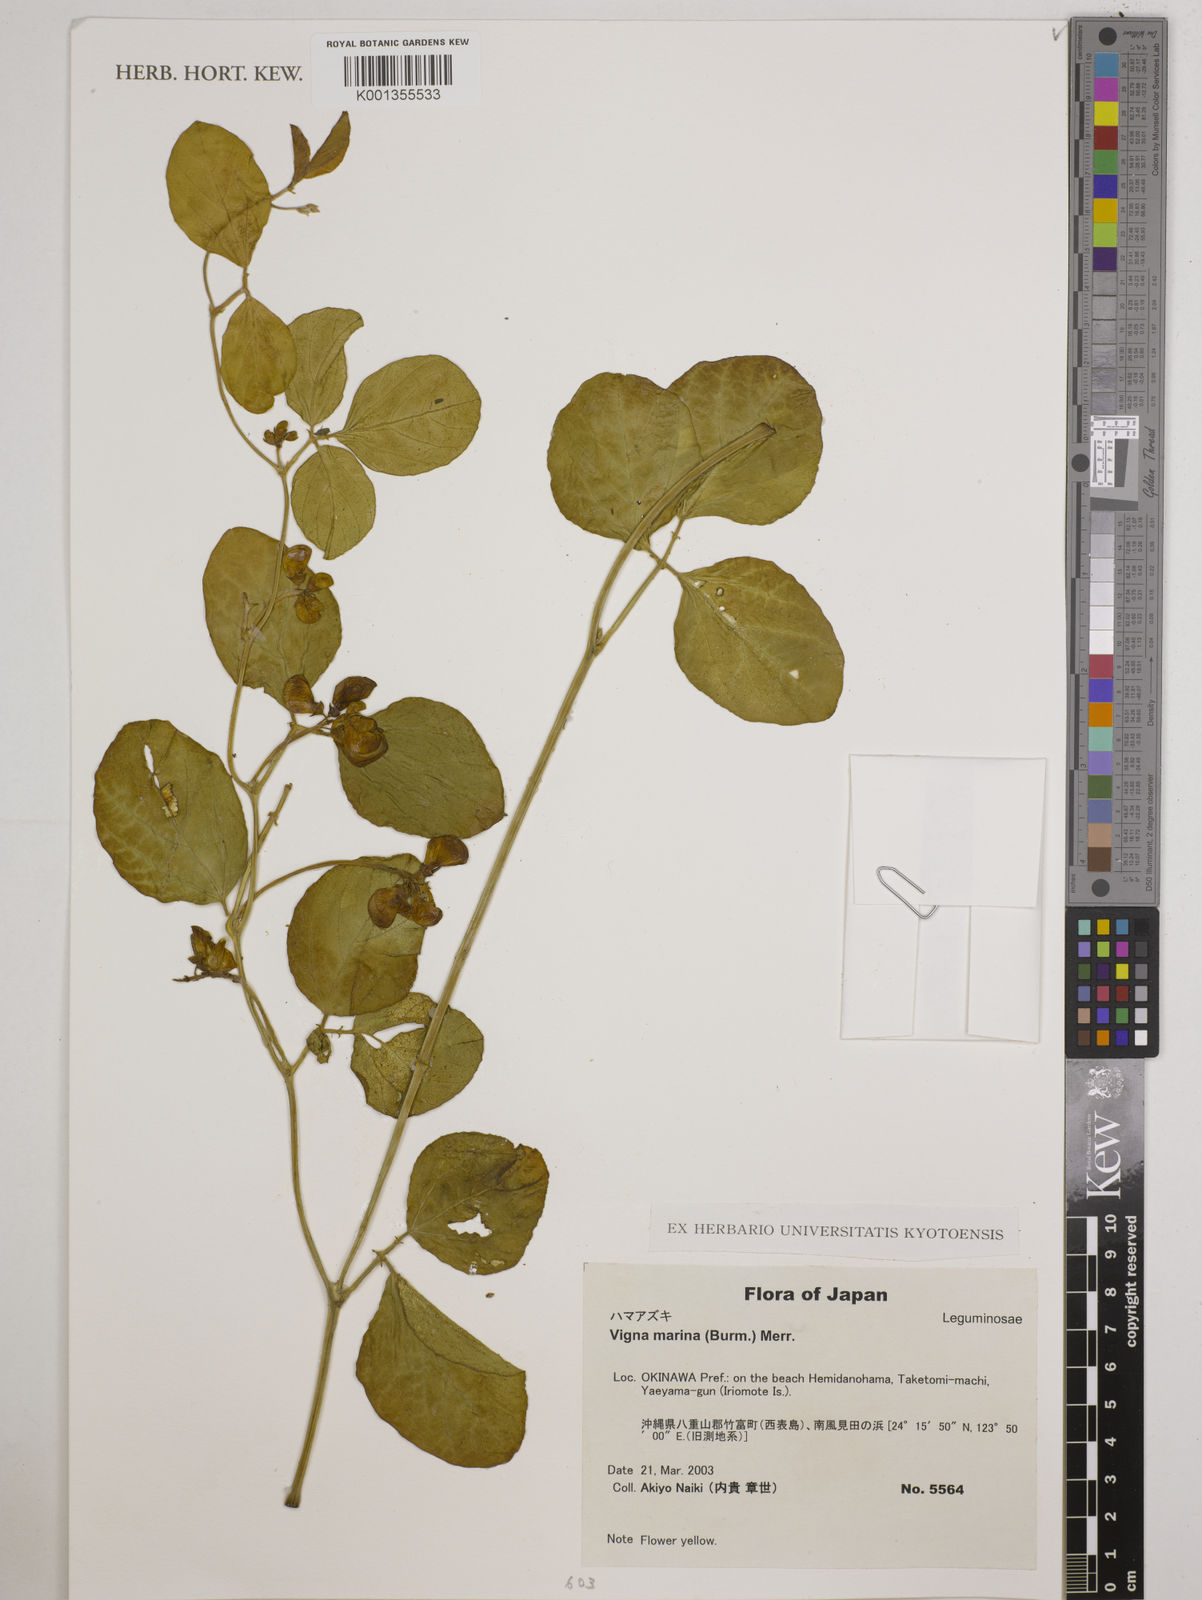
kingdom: Plantae
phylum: Tracheophyta
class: Magnoliopsida
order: Fabales
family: Fabaceae
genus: Vigna
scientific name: Vigna marina
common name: Dune-bean
